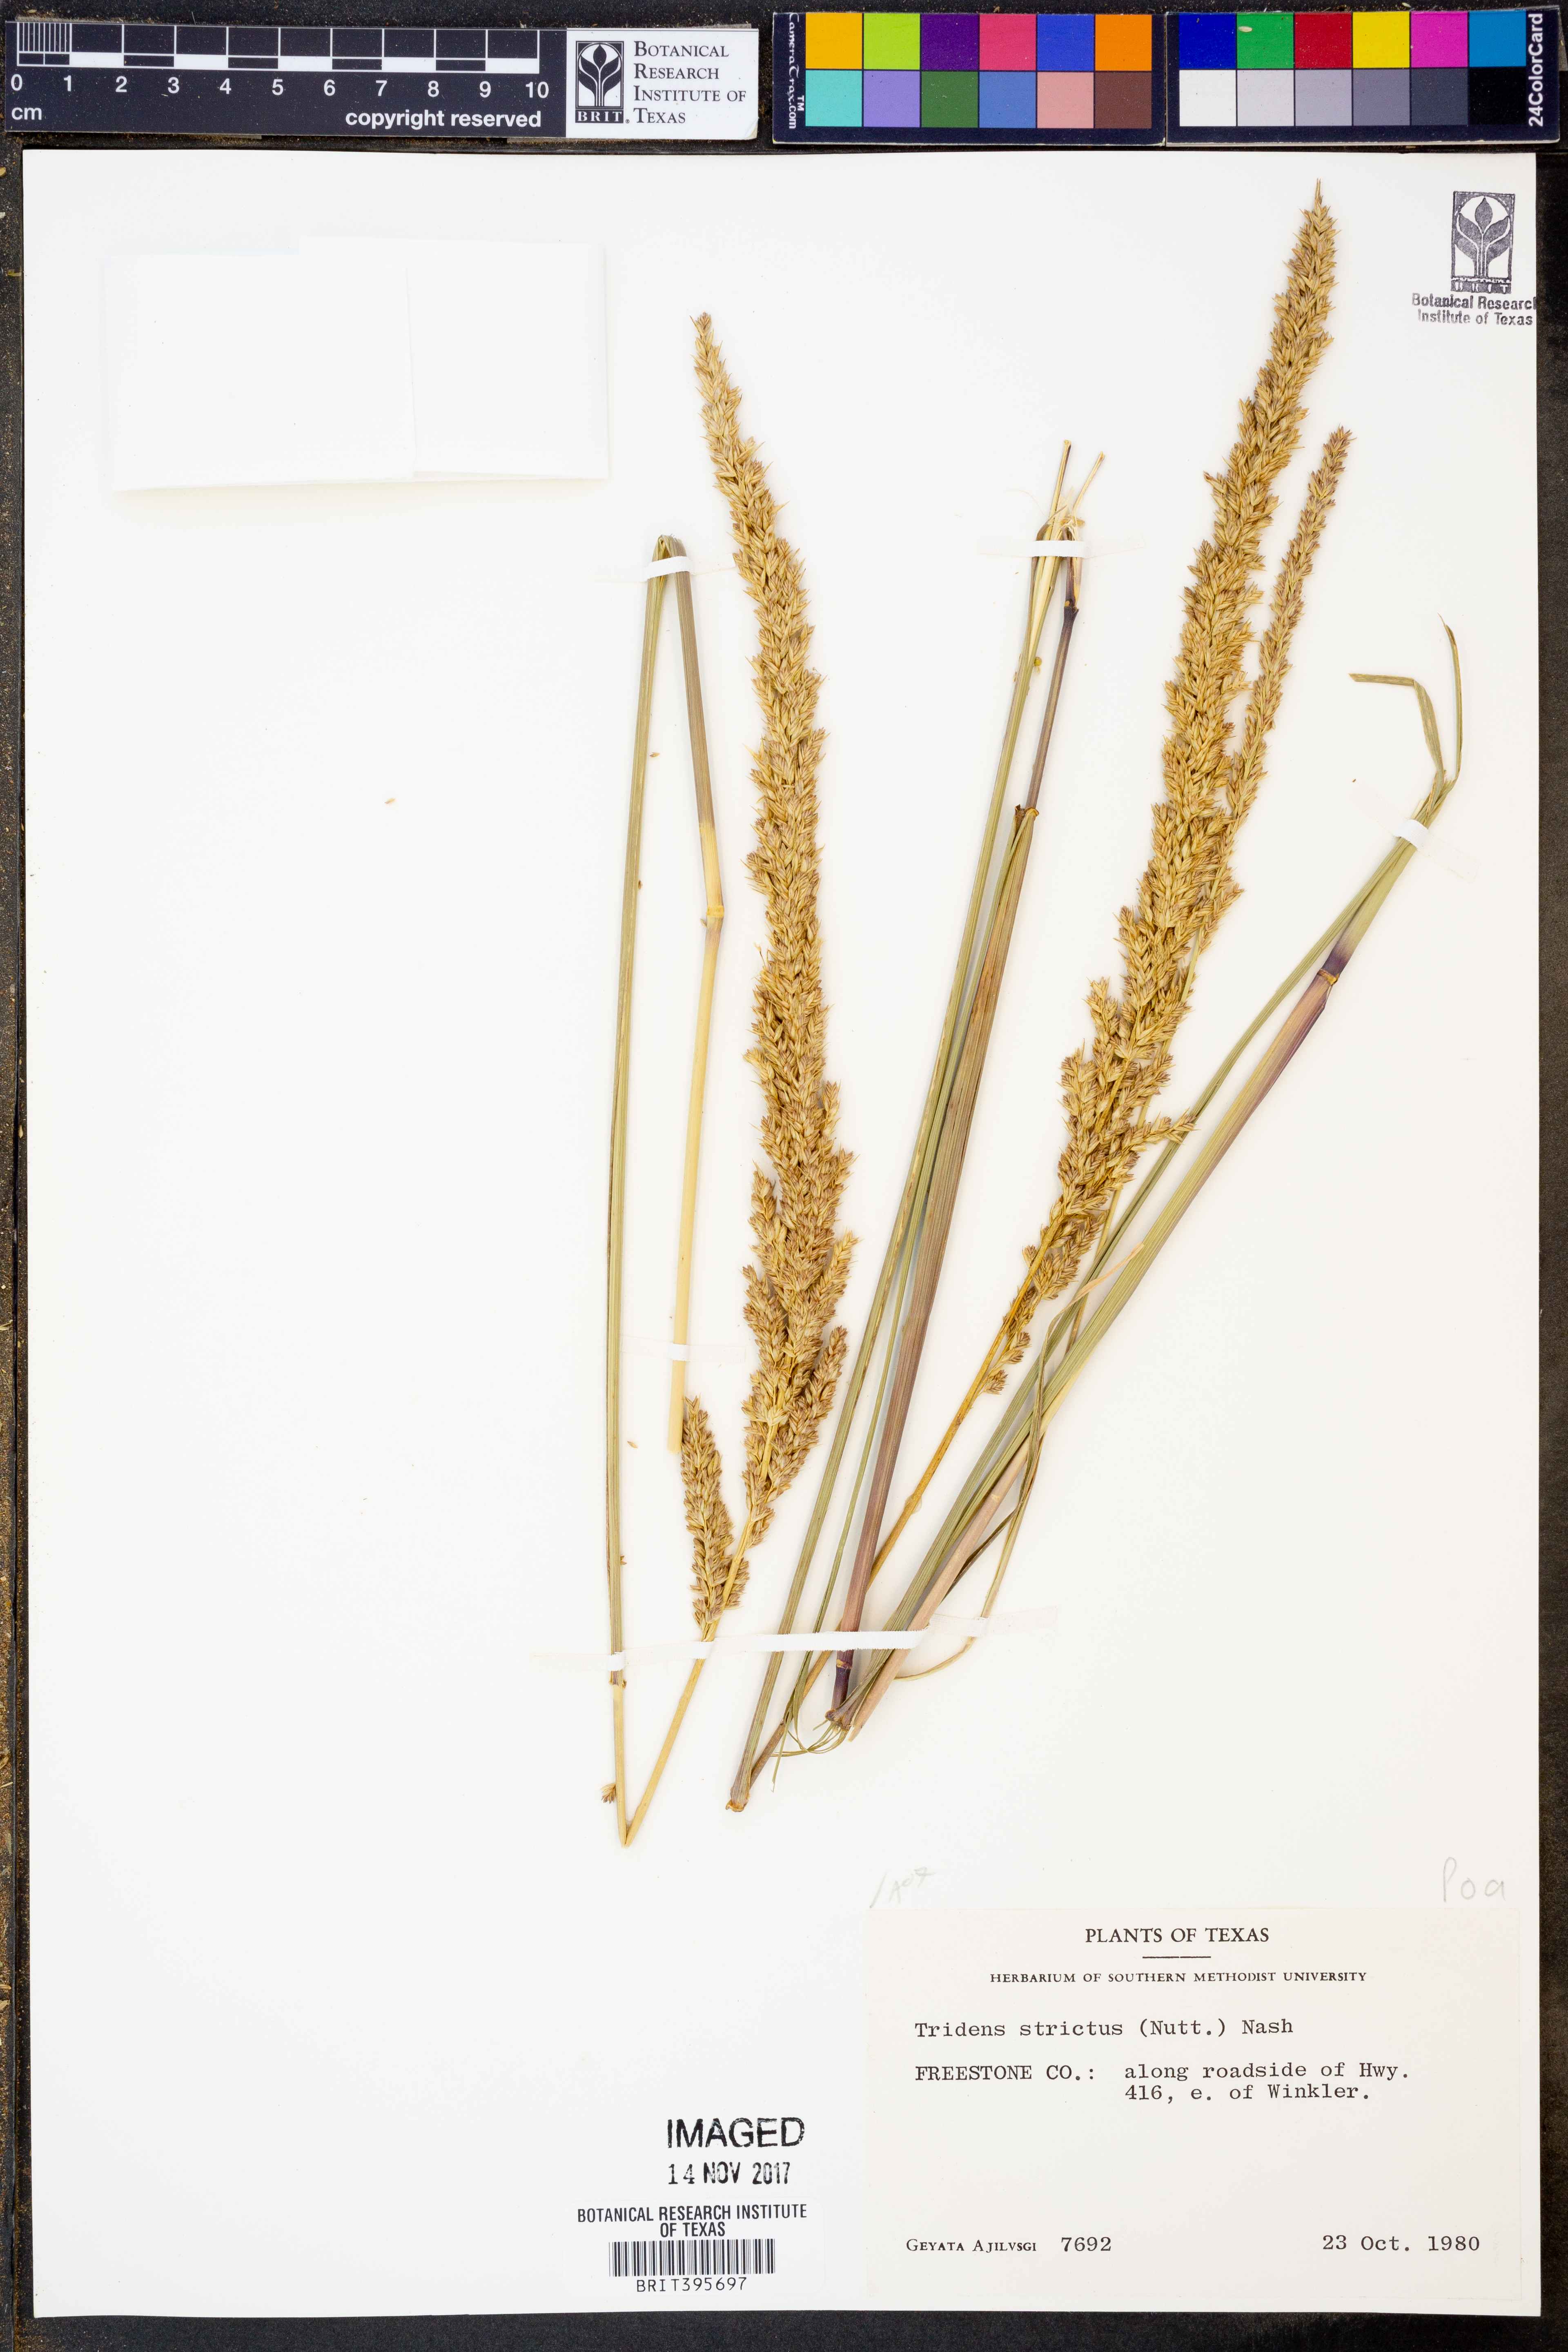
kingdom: Plantae
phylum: Tracheophyta
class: Liliopsida
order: Poales
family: Poaceae
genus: Tridens
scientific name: Tridens strictus
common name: Long-spike tridens
